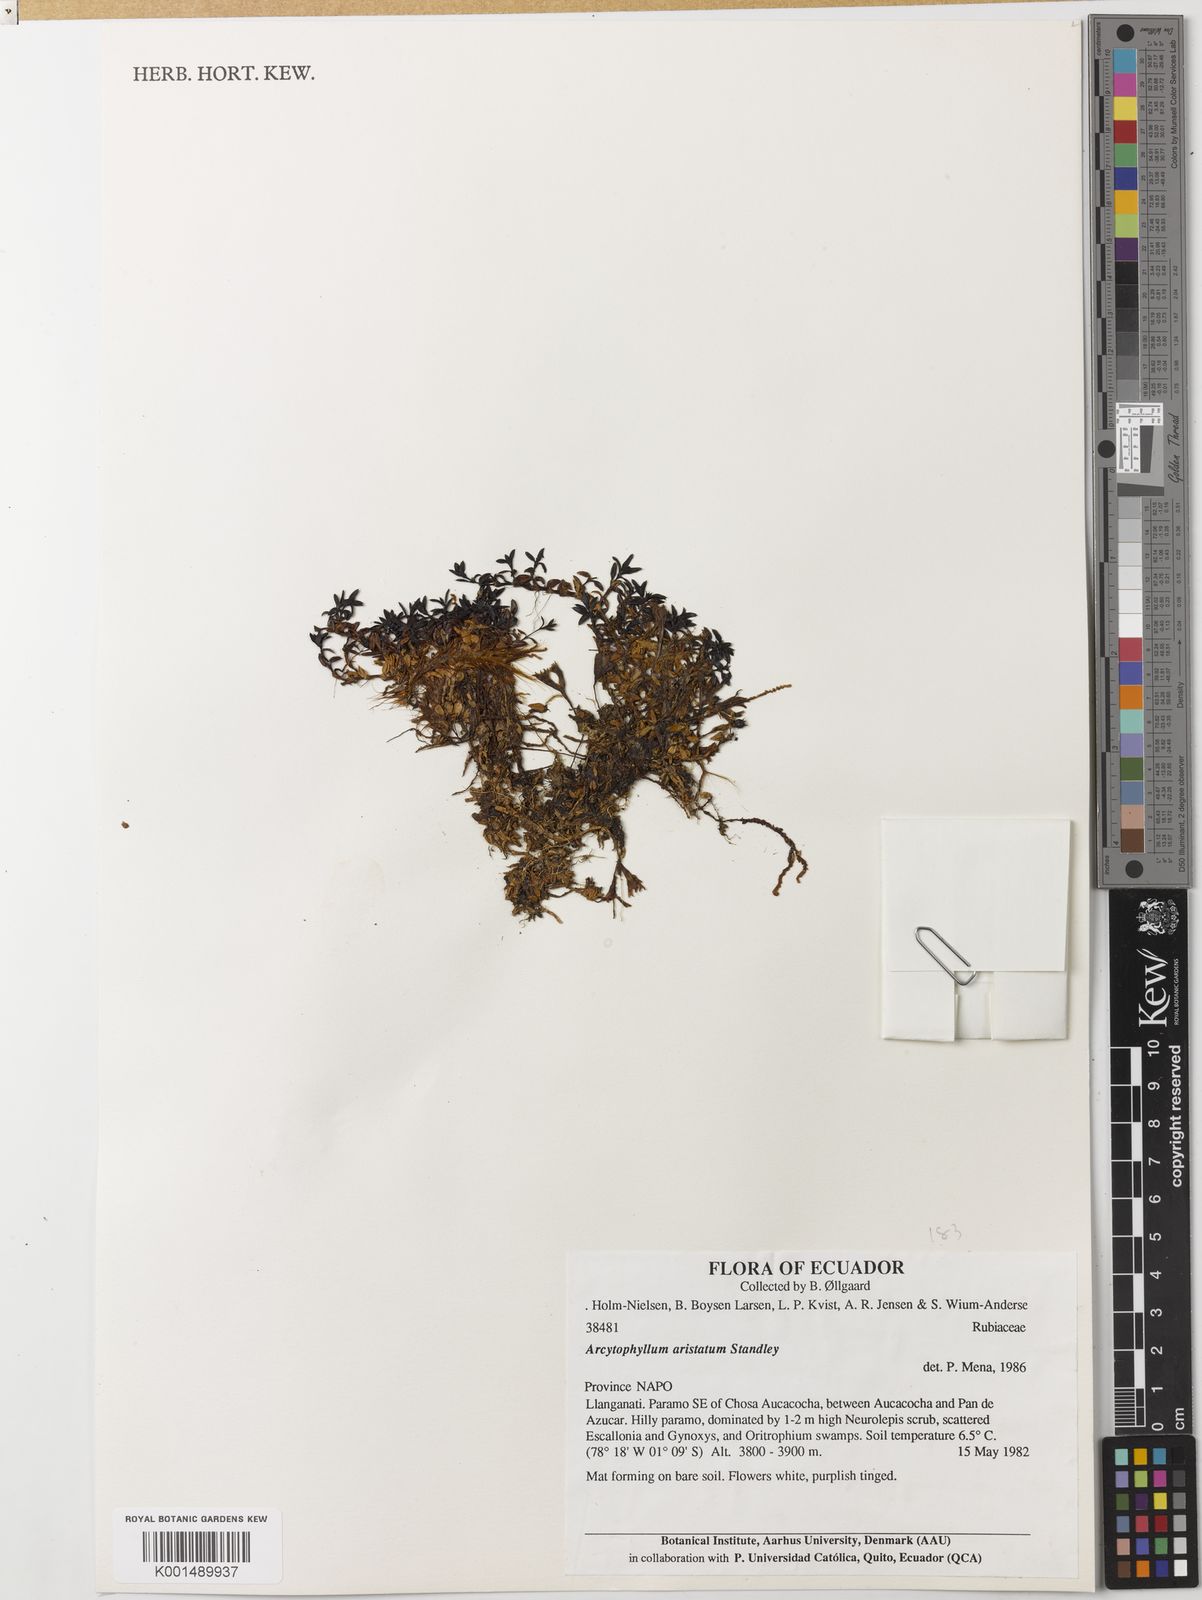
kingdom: Plantae
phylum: Tracheophyta
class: Magnoliopsida
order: Gentianales
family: Rubiaceae
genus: Arcytophyllum
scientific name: Arcytophyllum aristatum
